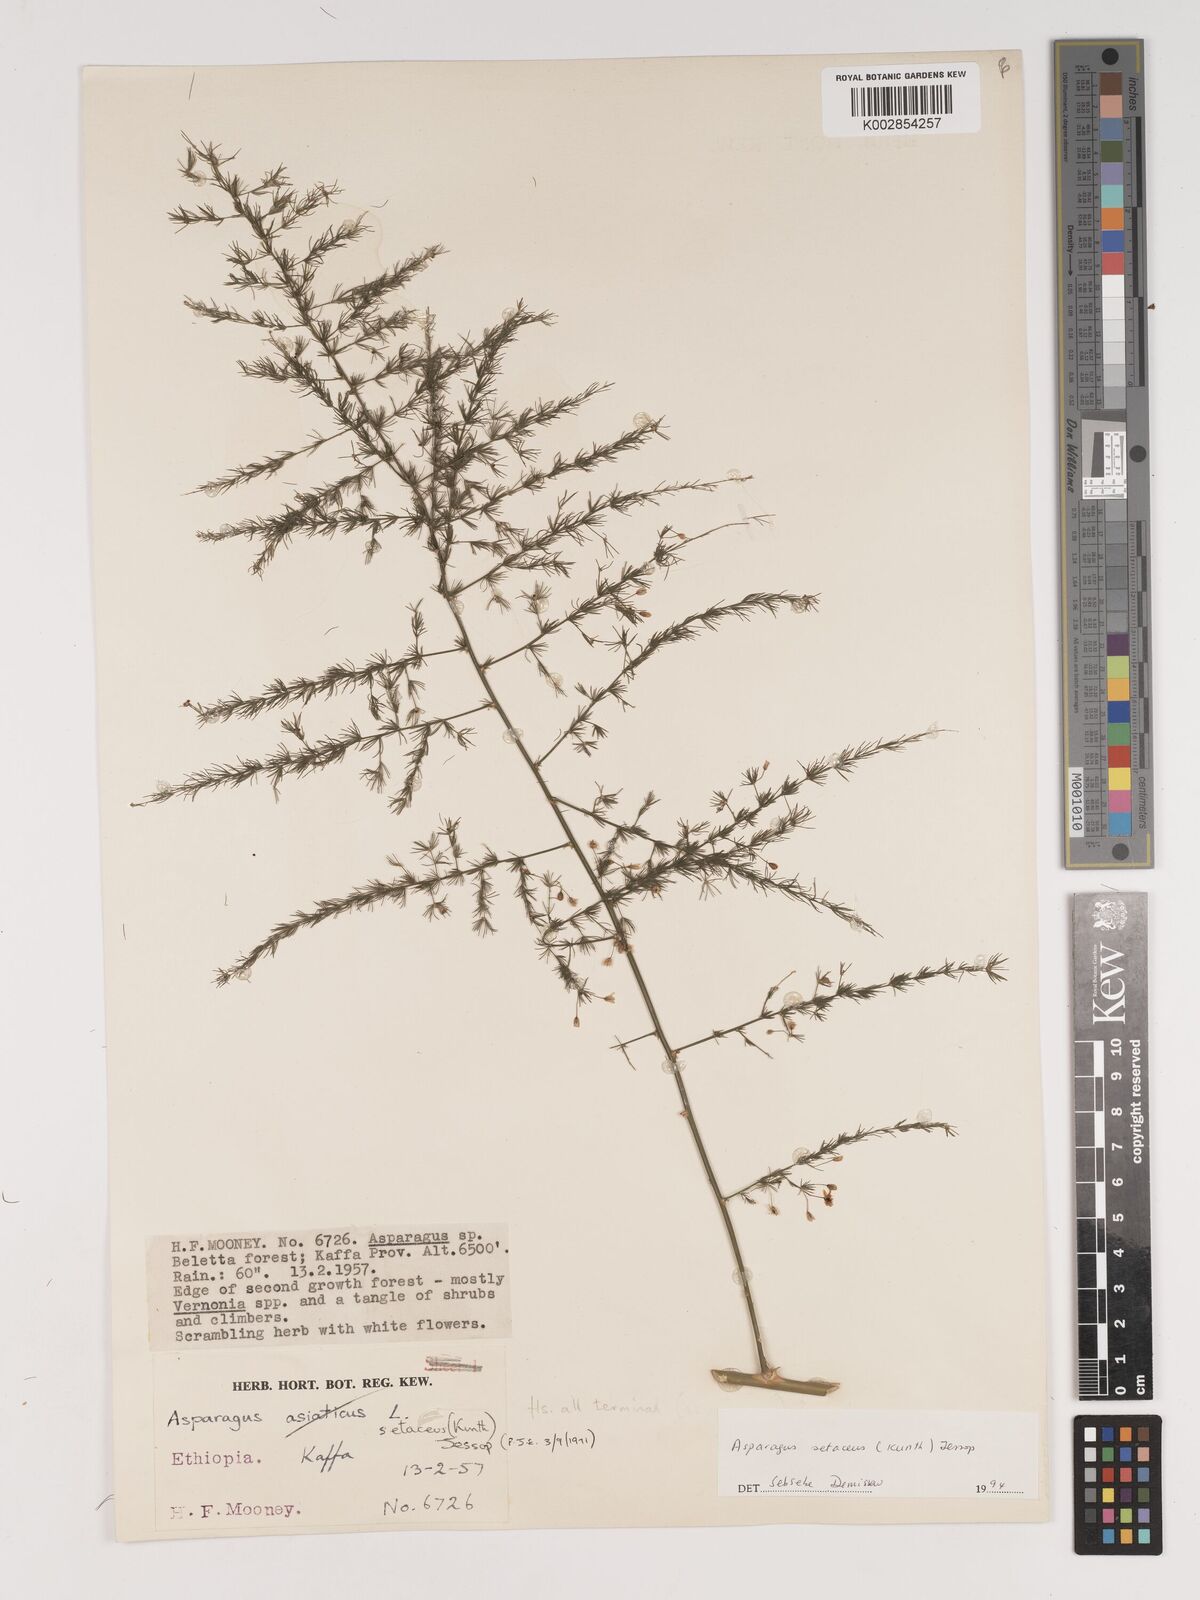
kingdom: Plantae
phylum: Tracheophyta
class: Liliopsida
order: Asparagales
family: Asparagaceae
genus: Asparagus
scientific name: Asparagus setaceus
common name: Common asparagus fern
